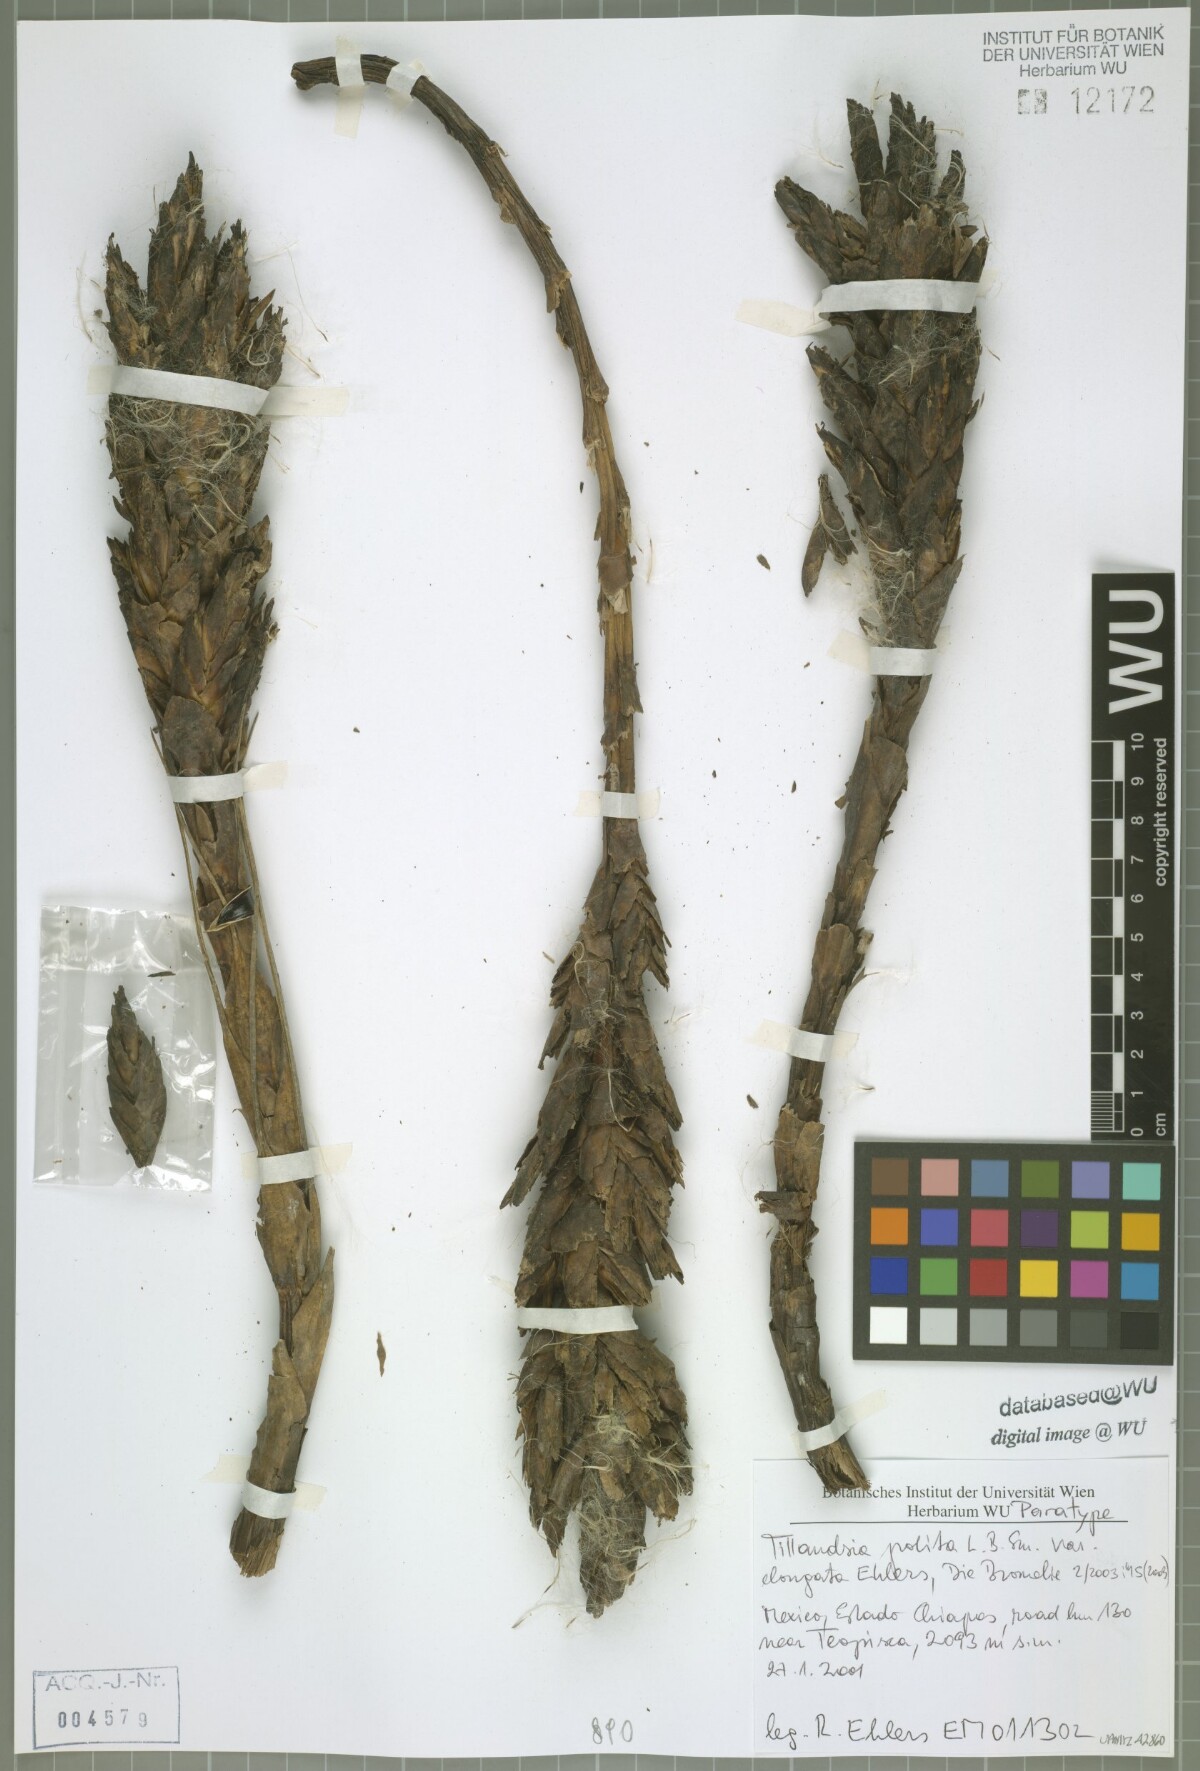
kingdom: Plantae
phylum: Tracheophyta
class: Liliopsida
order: Poales
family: Bromeliaceae
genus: Tillandsia
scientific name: Tillandsia polita
